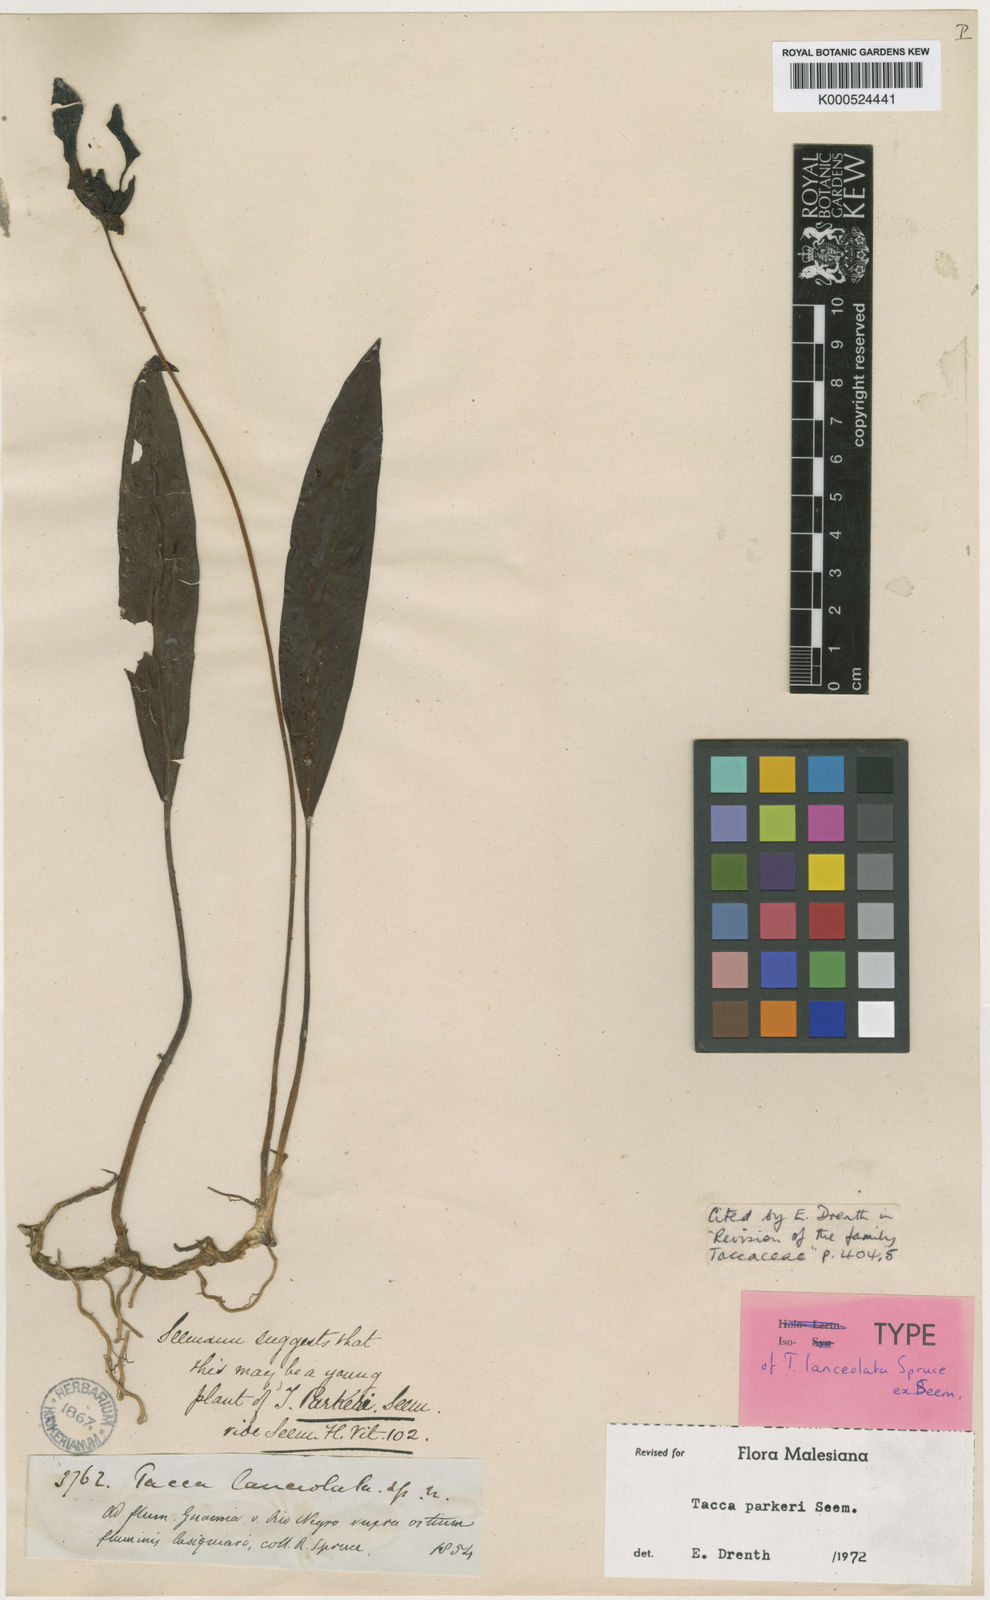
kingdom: Plantae
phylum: Tracheophyta
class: Liliopsida
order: Dioscoreales
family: Dioscoreaceae
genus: Tacca
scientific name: Tacca parkeri
